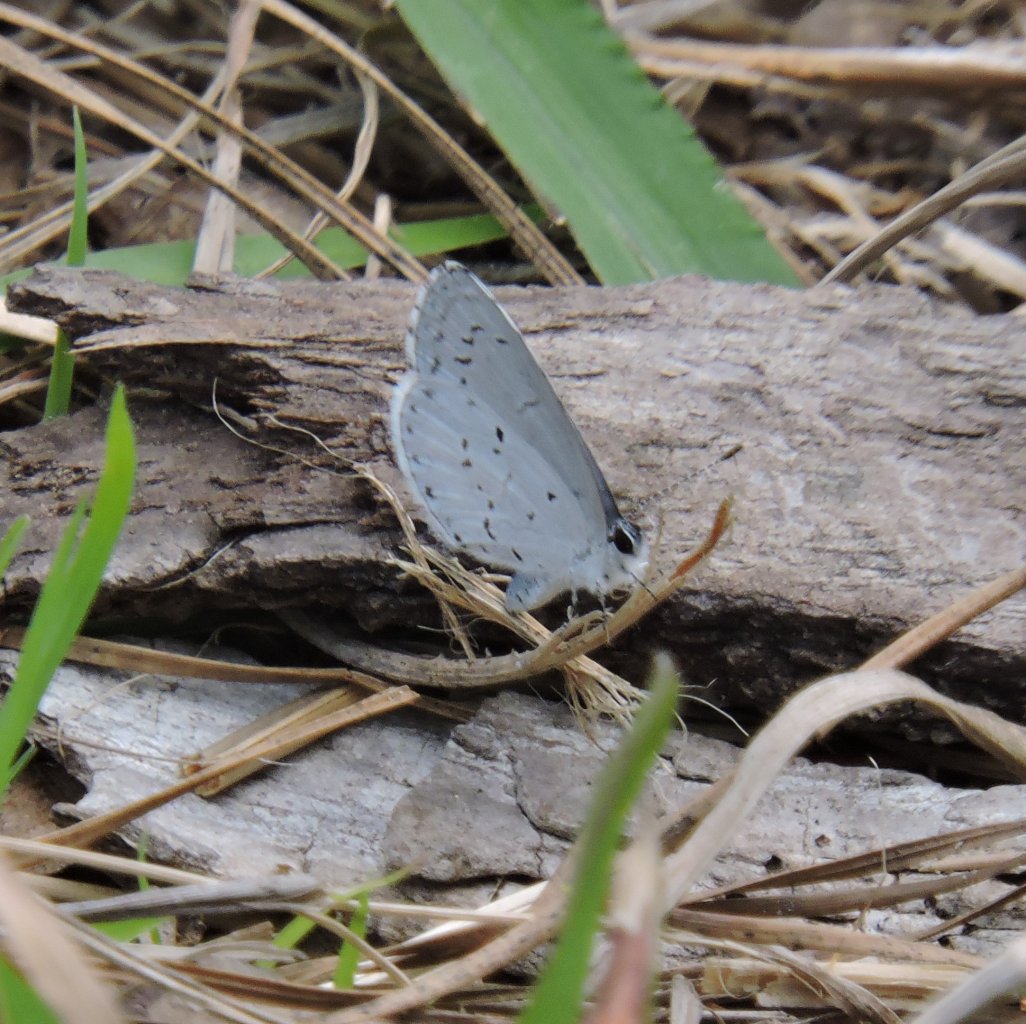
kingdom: Animalia
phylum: Arthropoda
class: Insecta
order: Lepidoptera
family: Lycaenidae
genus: Cyaniris
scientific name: Cyaniris neglecta
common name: Summer Azure
